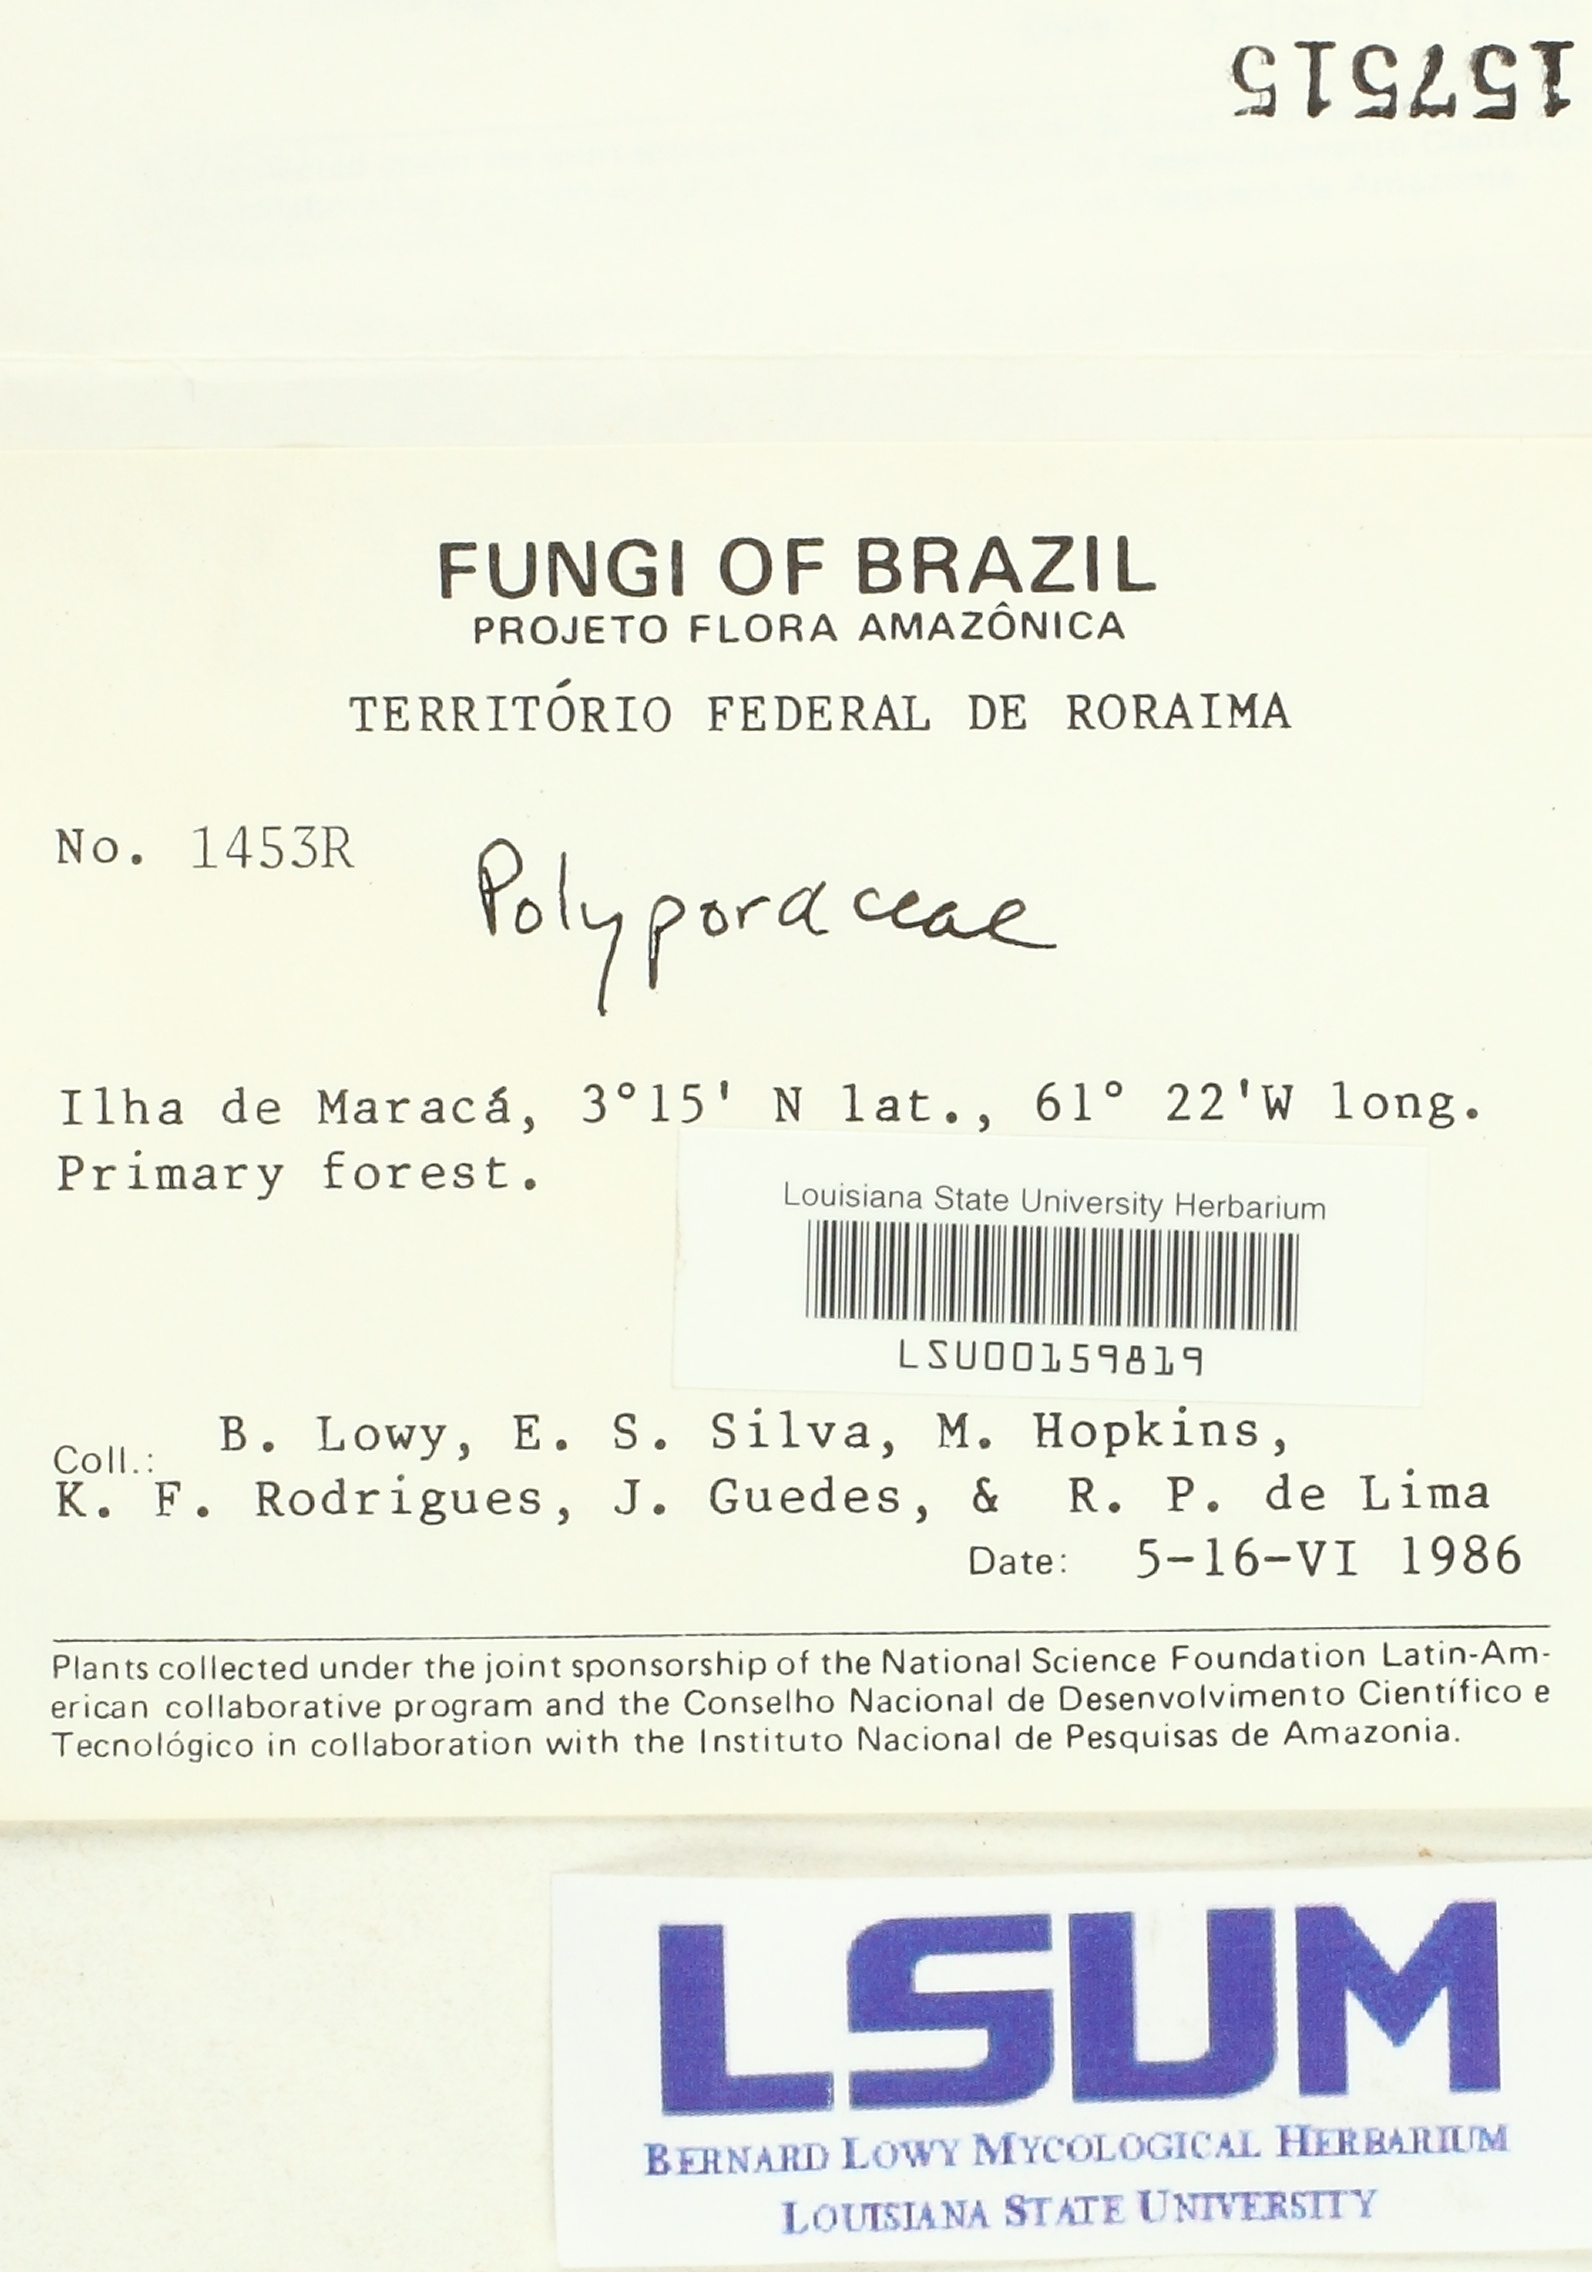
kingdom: Fungi
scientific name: Fungi
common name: Fungi
